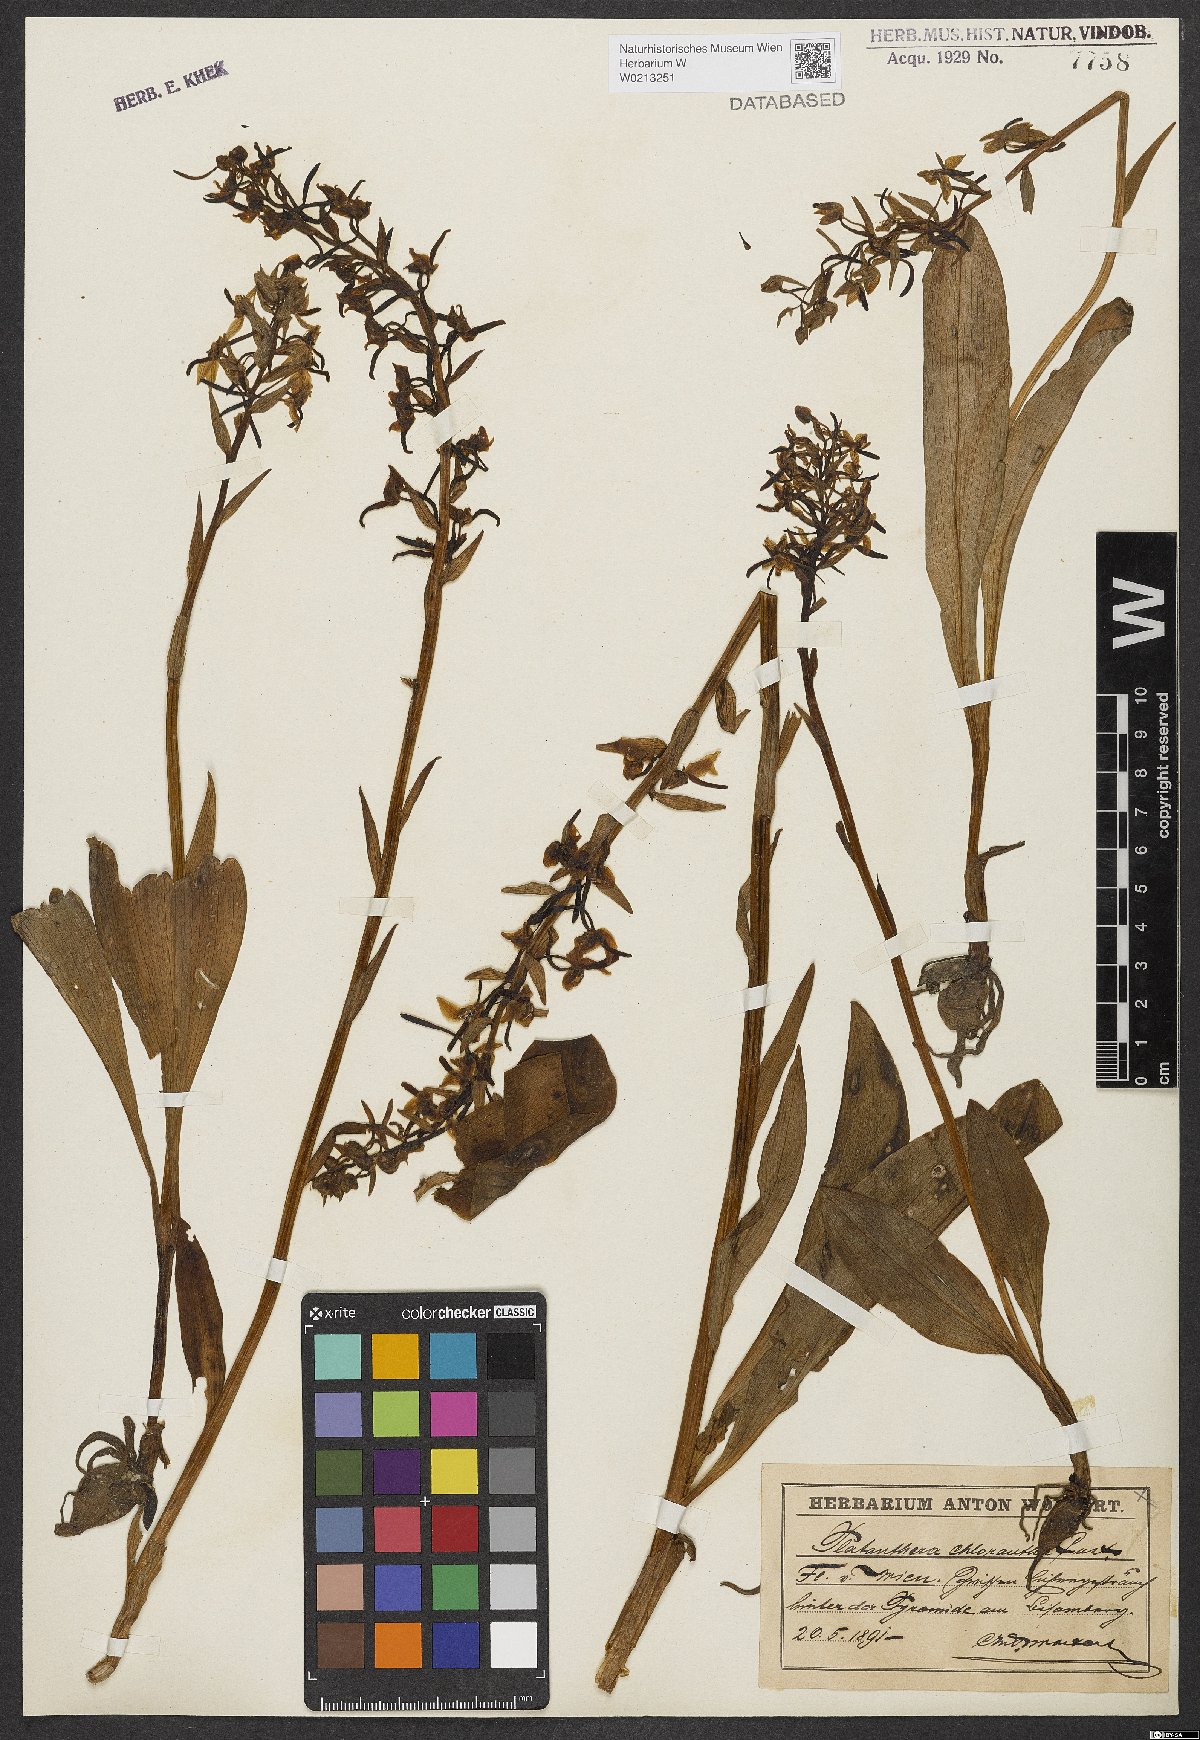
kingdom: Plantae
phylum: Tracheophyta
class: Liliopsida
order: Asparagales
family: Orchidaceae
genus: Platanthera
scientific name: Platanthera chlorantha
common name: Greater butterfly-orchid
